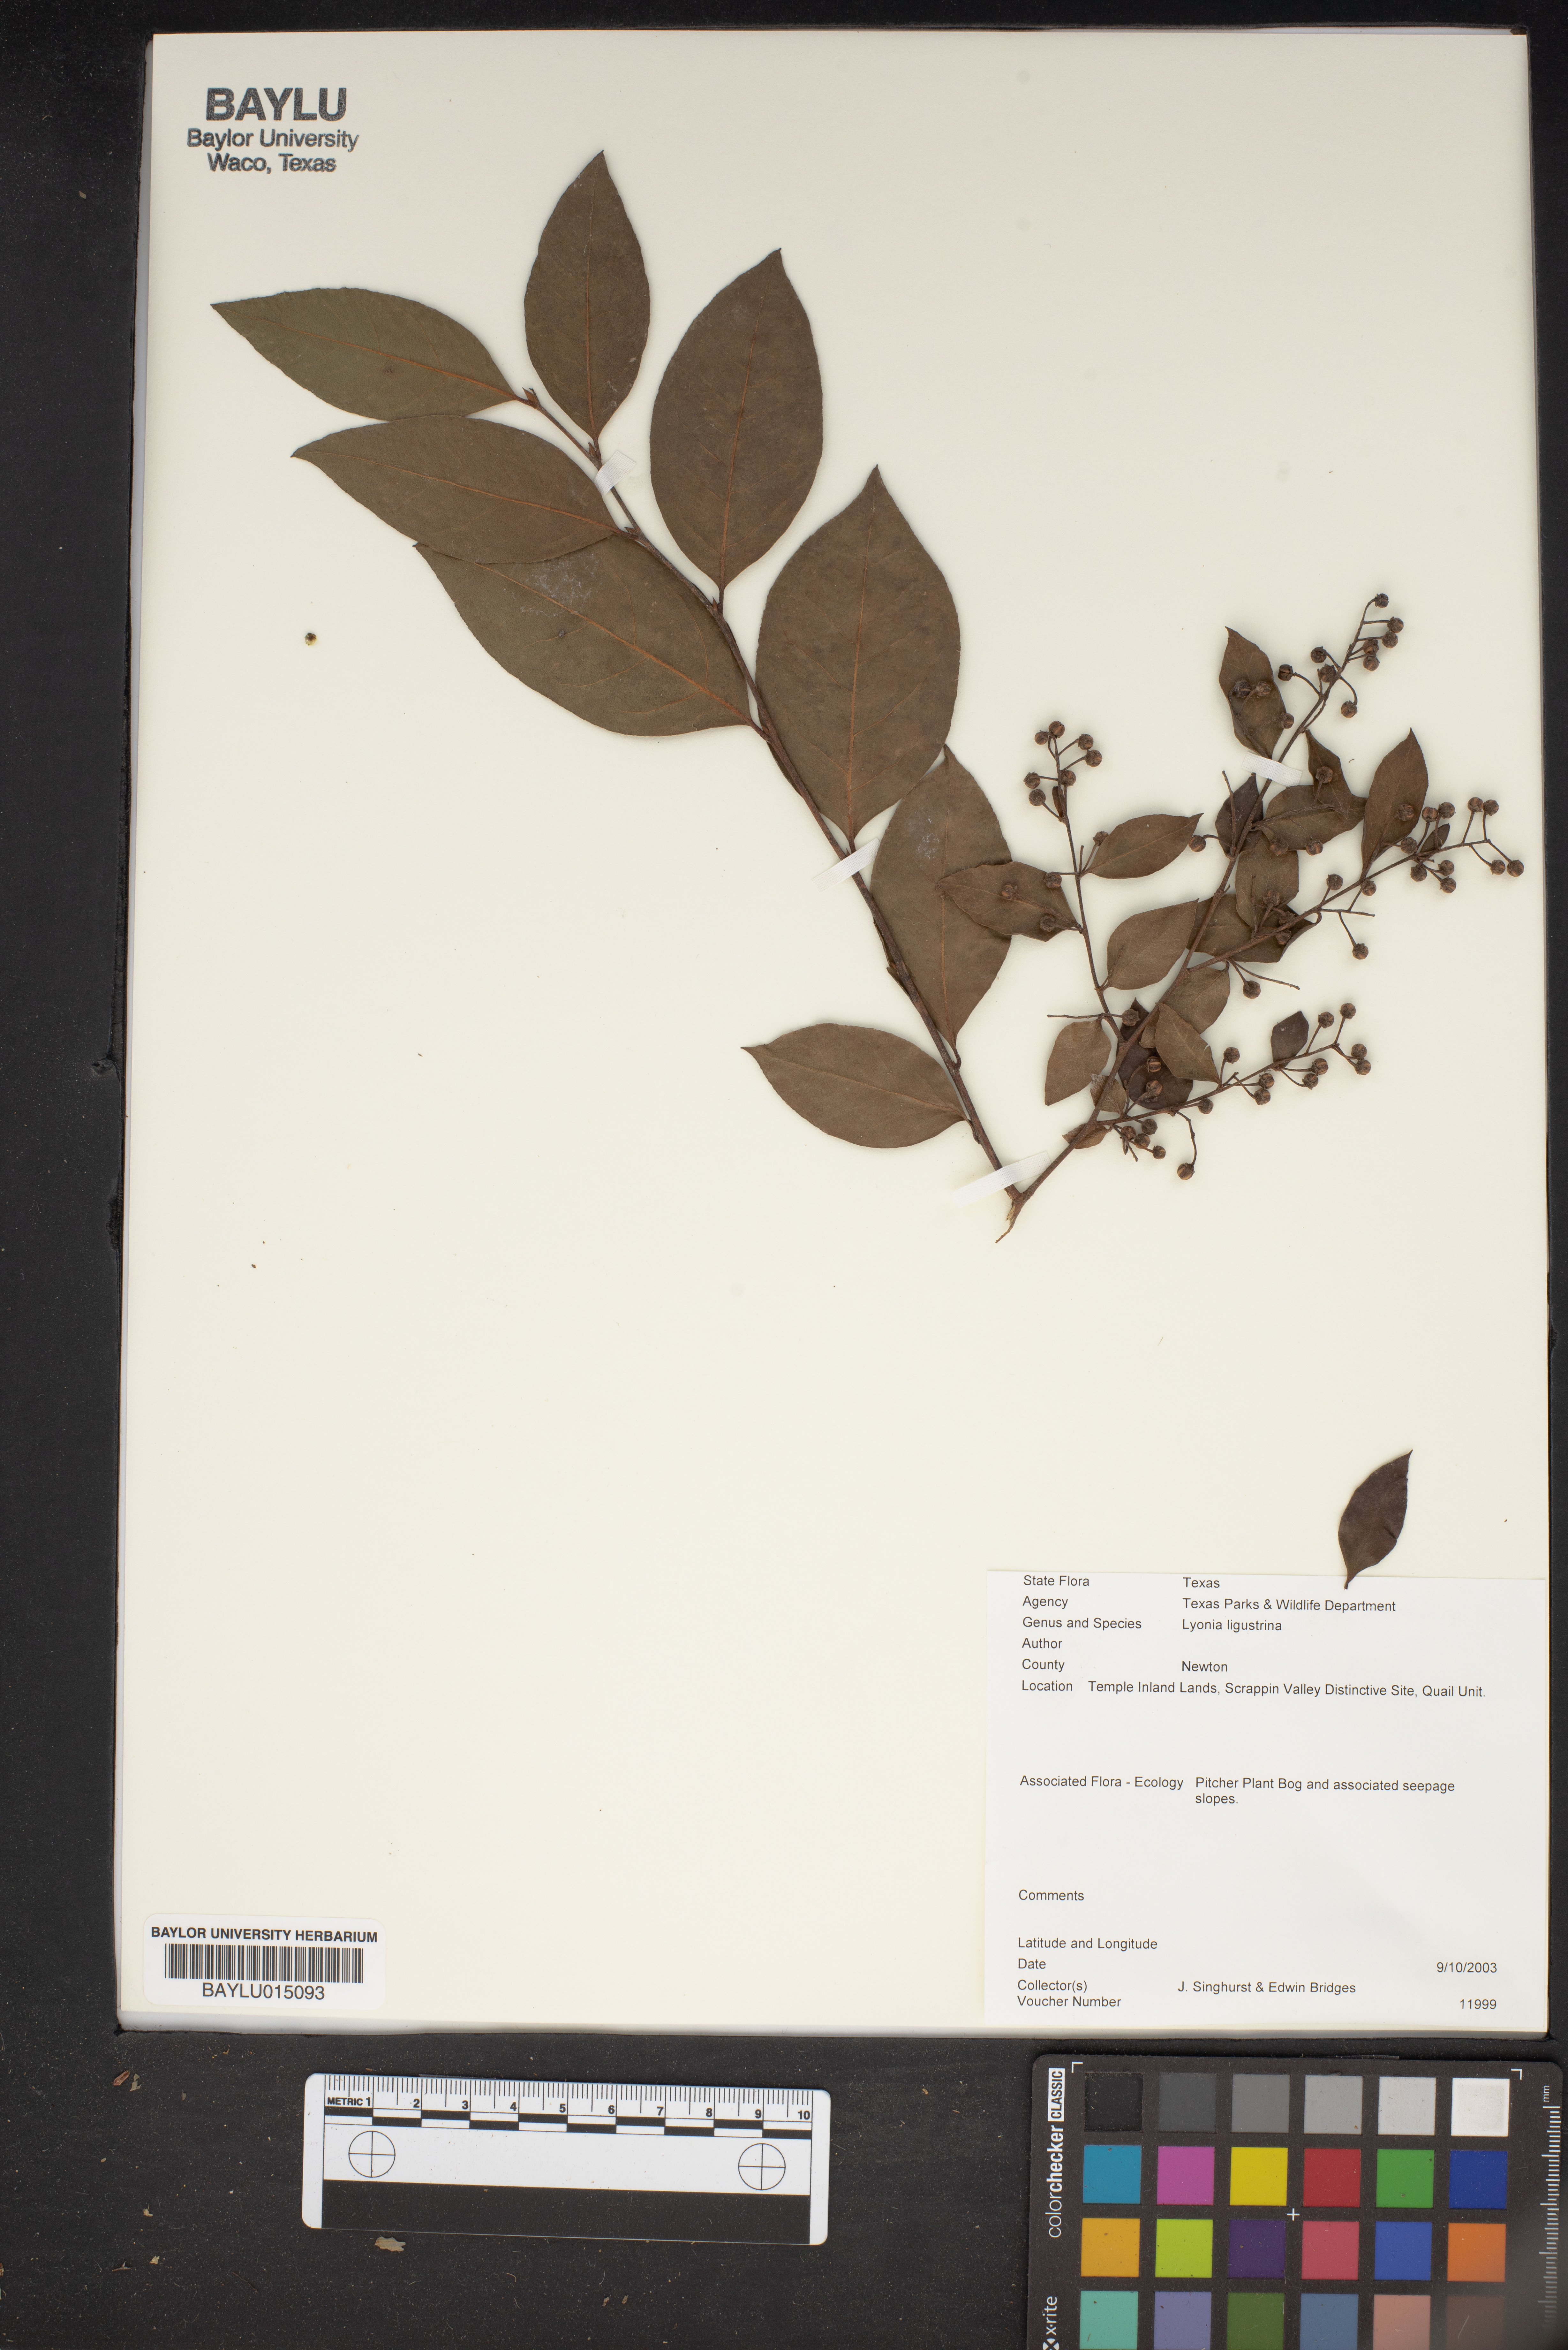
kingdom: Plantae
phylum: Tracheophyta
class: Magnoliopsida
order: Ericales
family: Ericaceae
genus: Lyonia
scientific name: Lyonia ligustrina
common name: Maleberry
